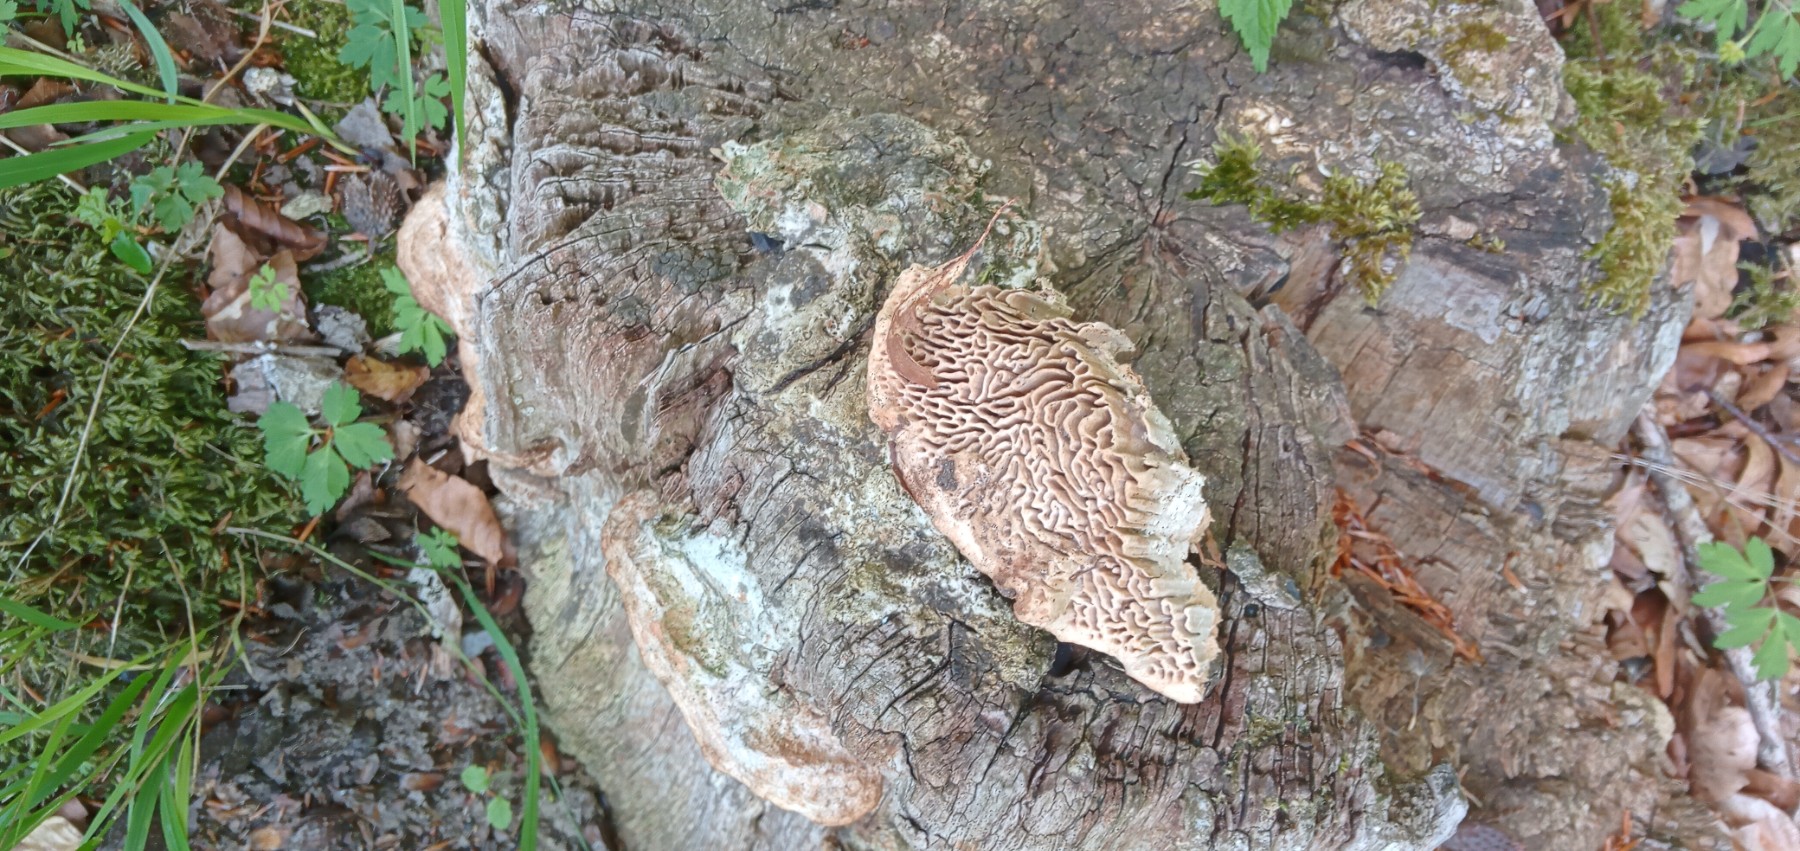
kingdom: Fungi
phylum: Basidiomycota
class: Agaricomycetes
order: Polyporales
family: Fomitopsidaceae
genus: Daedalea
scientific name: Daedalea quercina
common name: ege-labyrintsvamp
